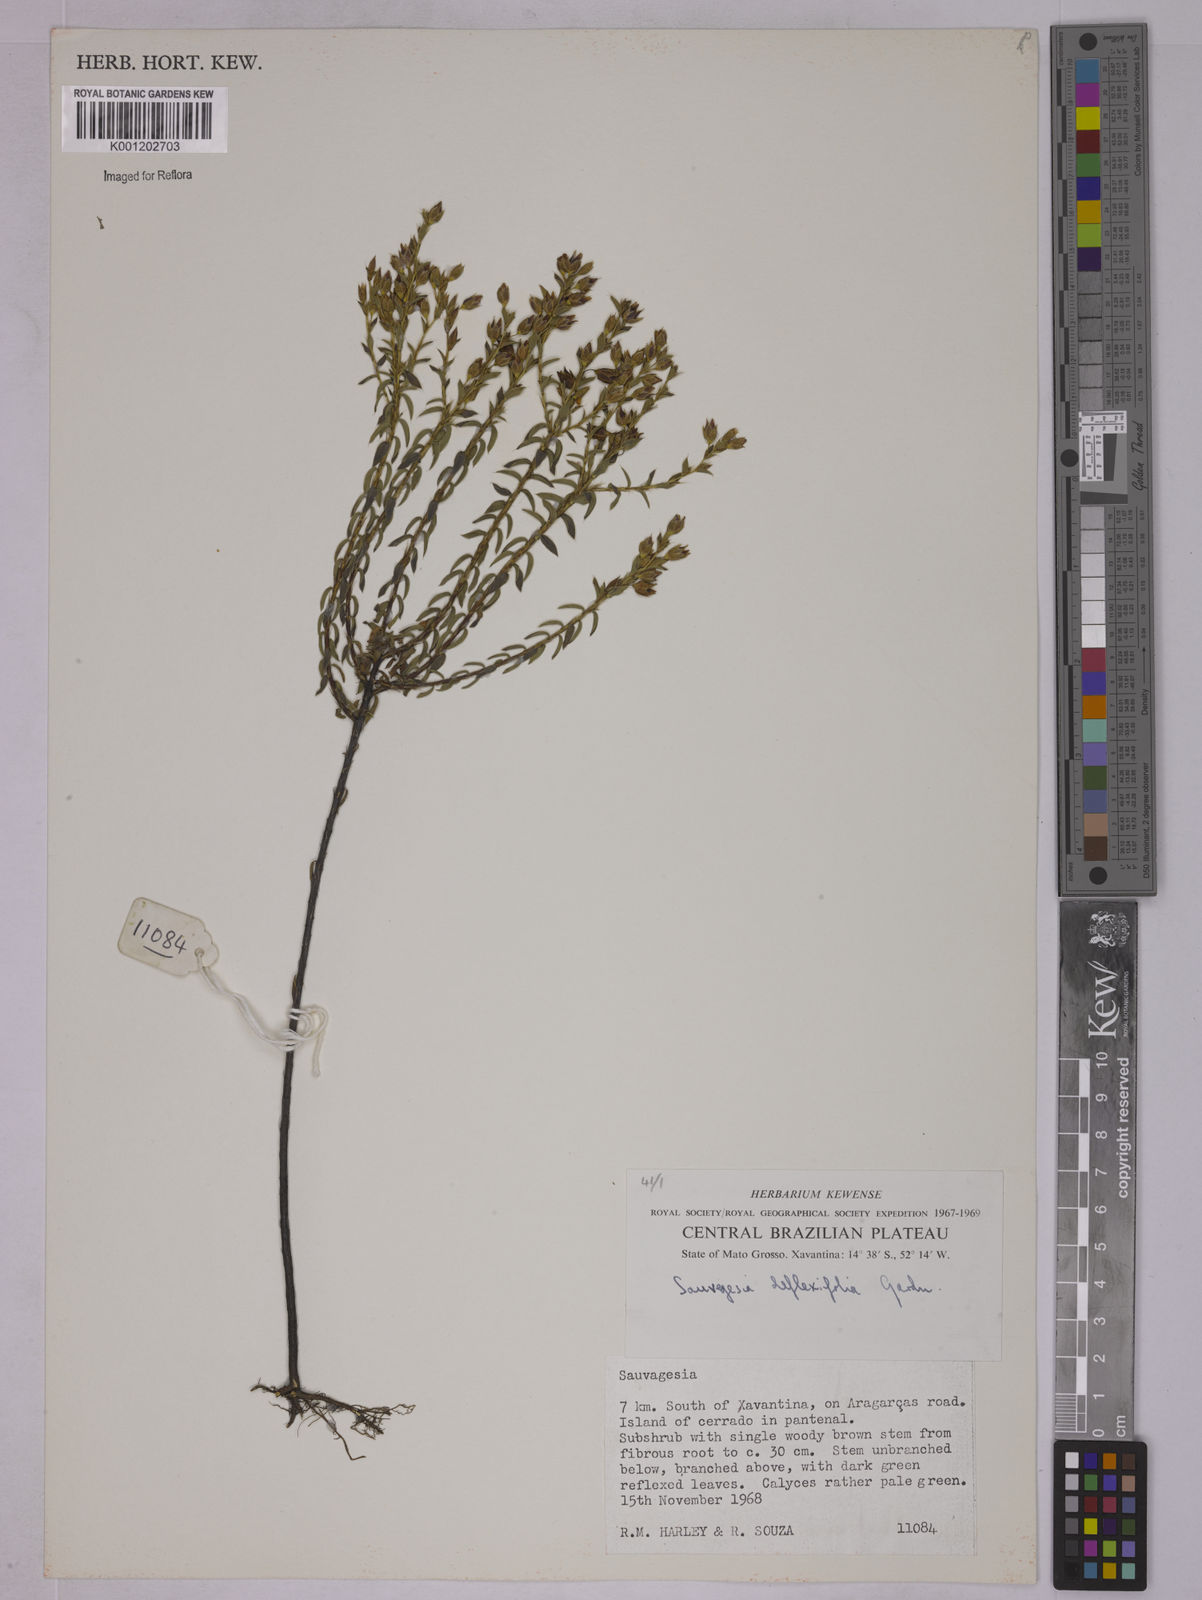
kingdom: Plantae
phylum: Tracheophyta
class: Magnoliopsida
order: Malpighiales
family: Ochnaceae
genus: Sauvagesia
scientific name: Sauvagesia deflexifolia
